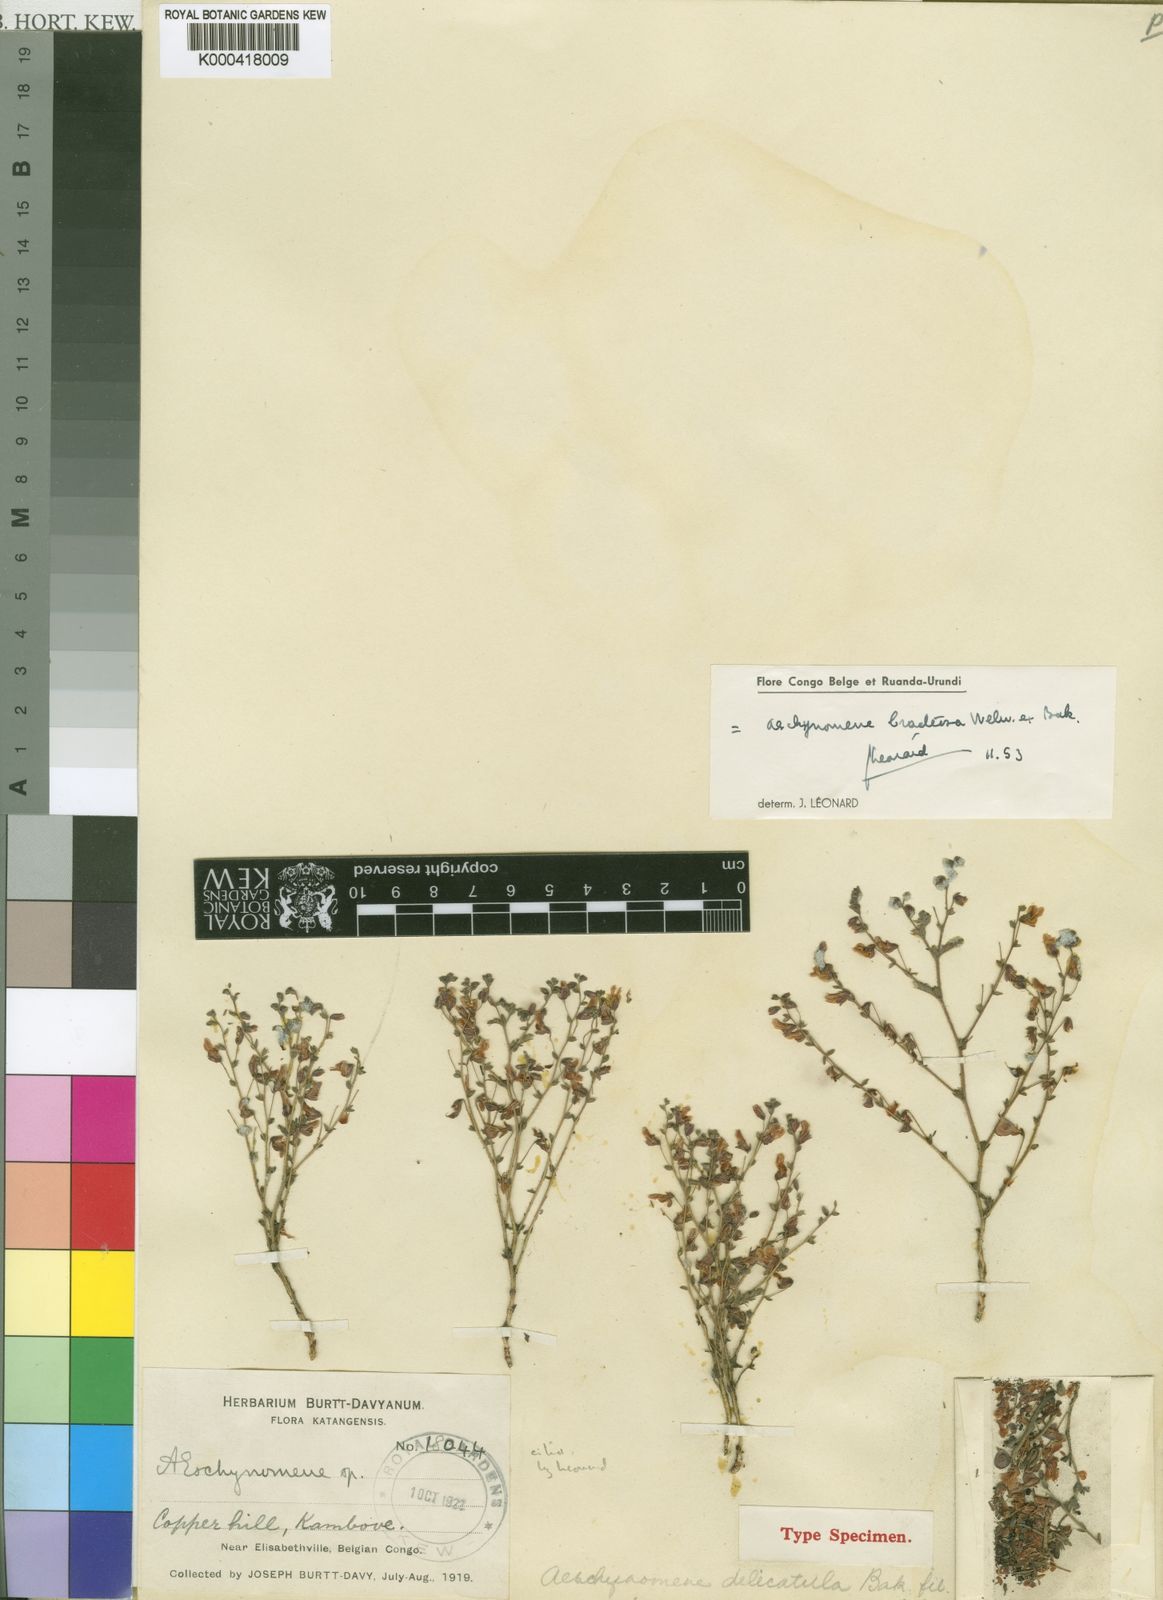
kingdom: Plantae
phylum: Tracheophyta
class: Magnoliopsida
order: Fabales
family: Fabaceae
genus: Aeschynomene
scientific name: Aeschynomene bracteosa
